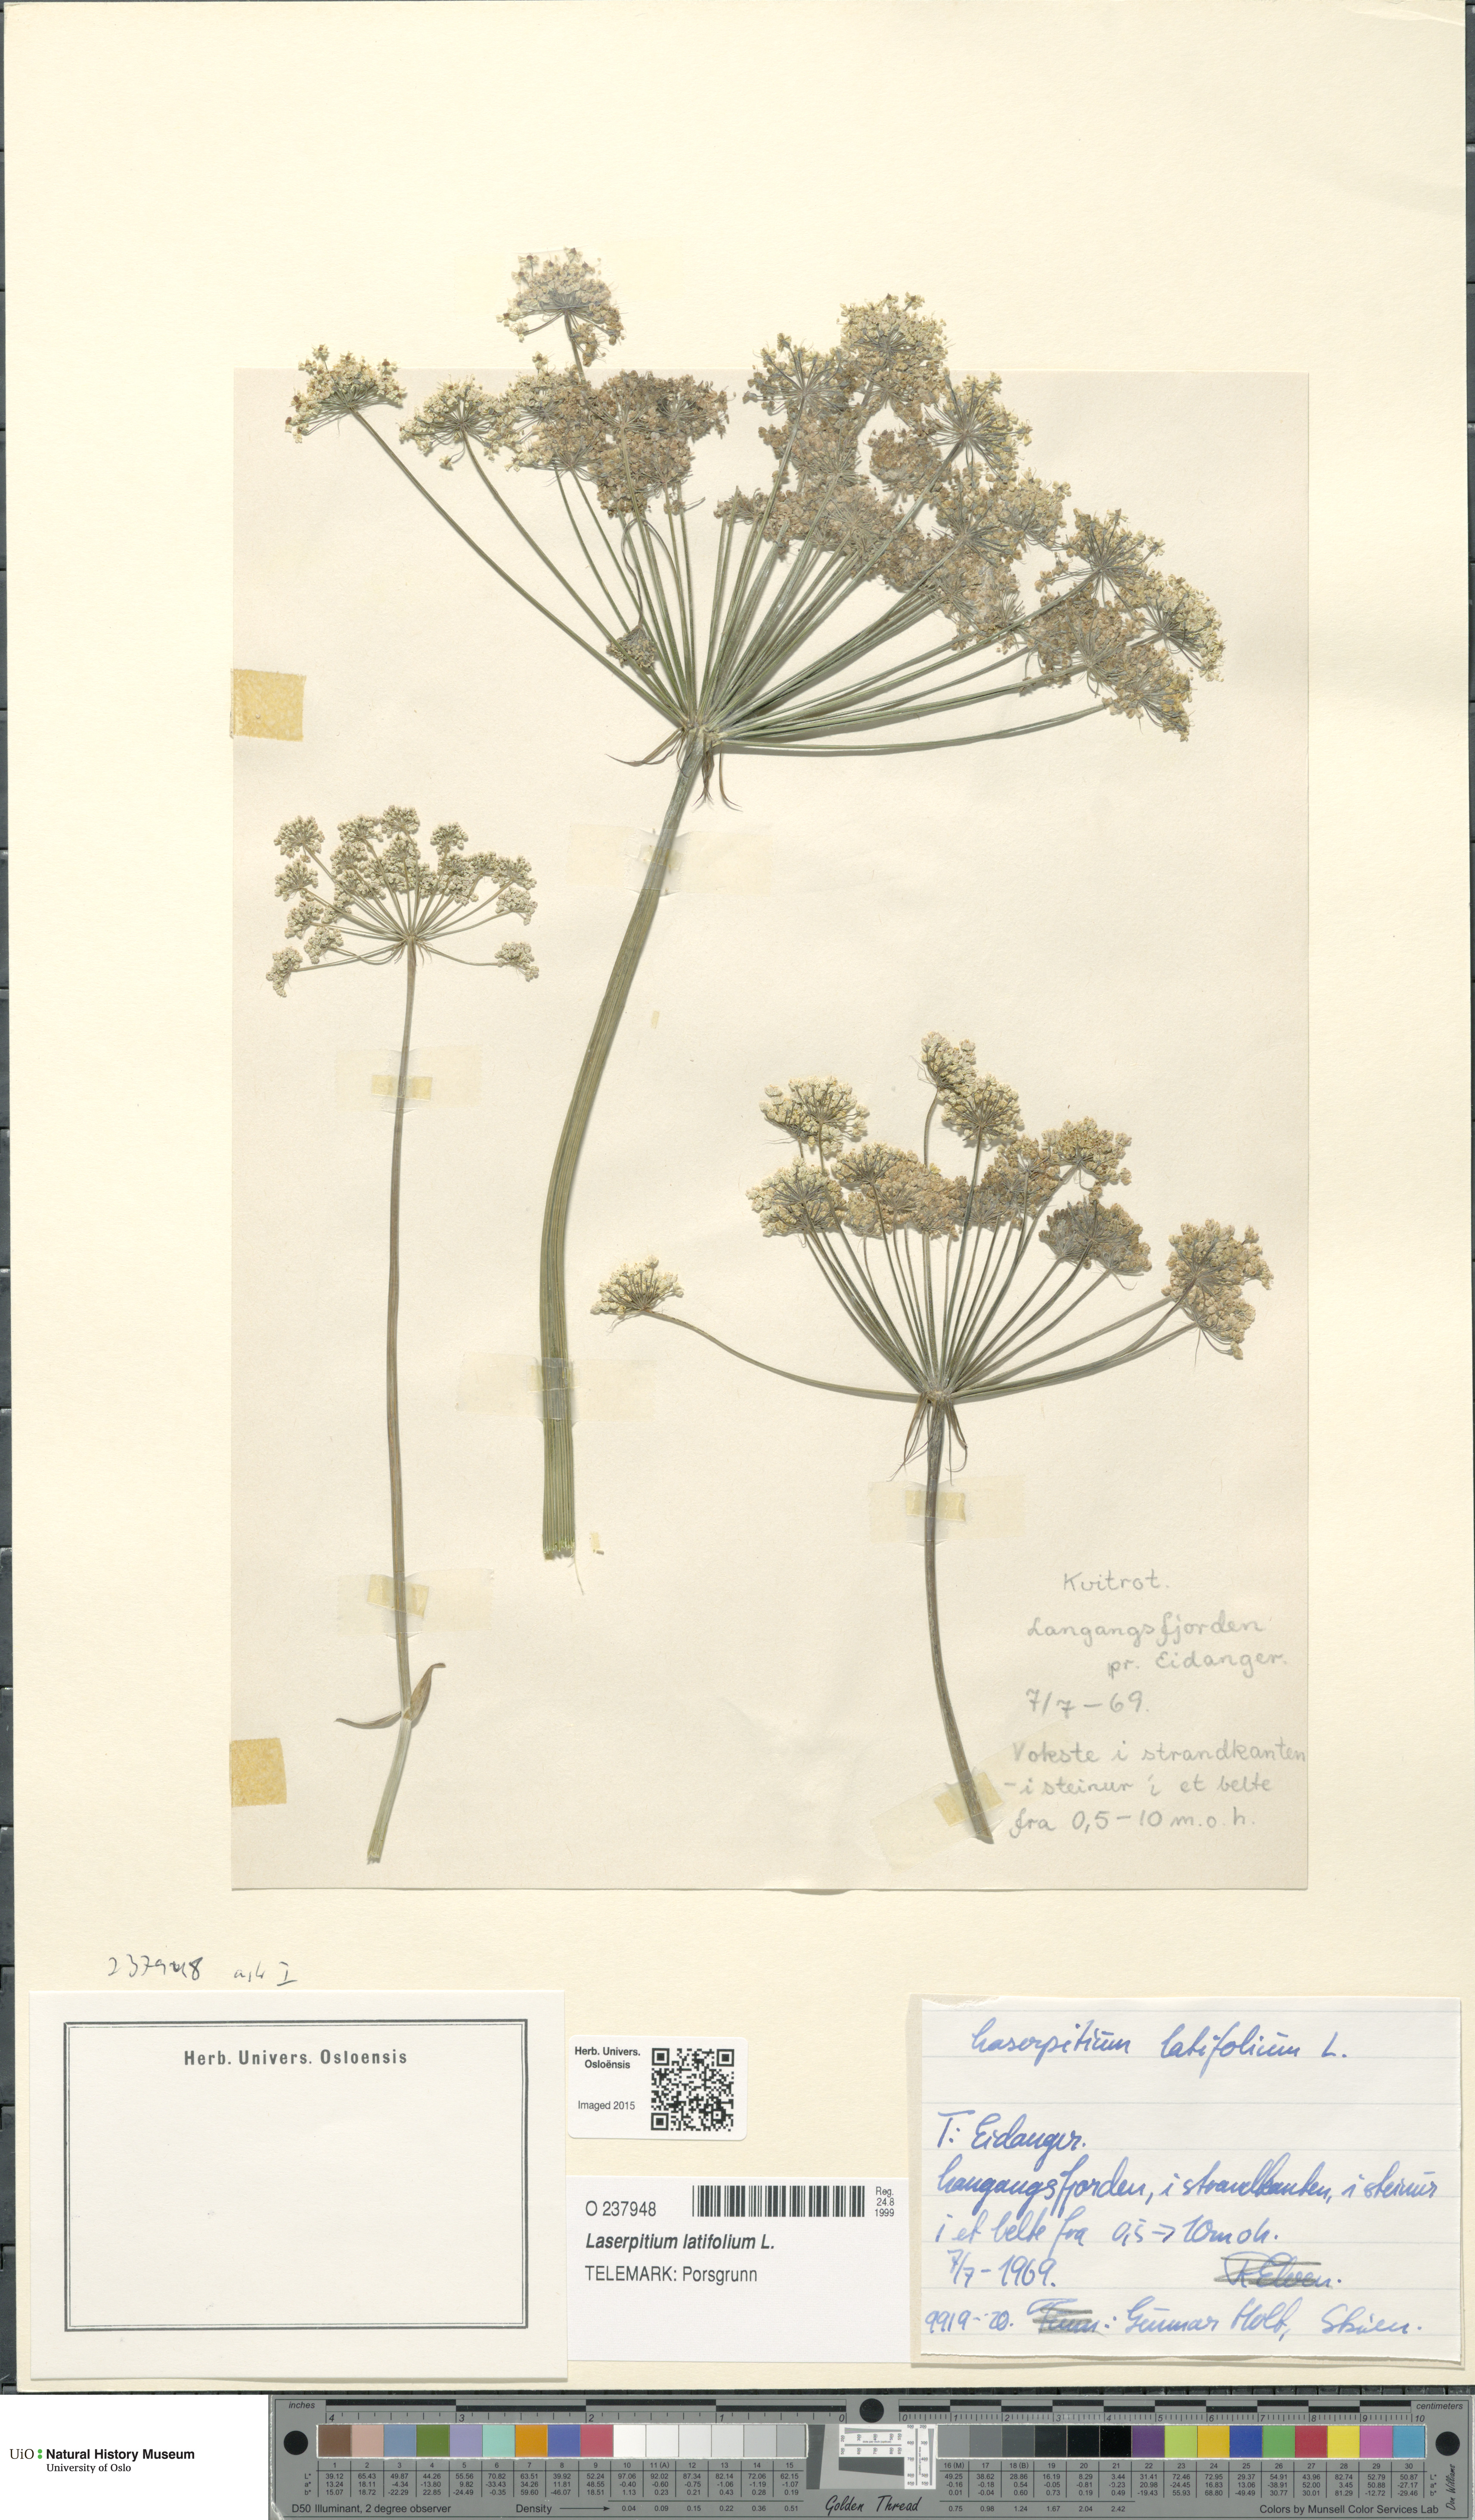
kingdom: Plantae
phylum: Tracheophyta
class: Magnoliopsida
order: Apiales
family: Apiaceae
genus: Laserpitium
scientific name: Laserpitium latifolium
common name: Broadleaf sermountain
